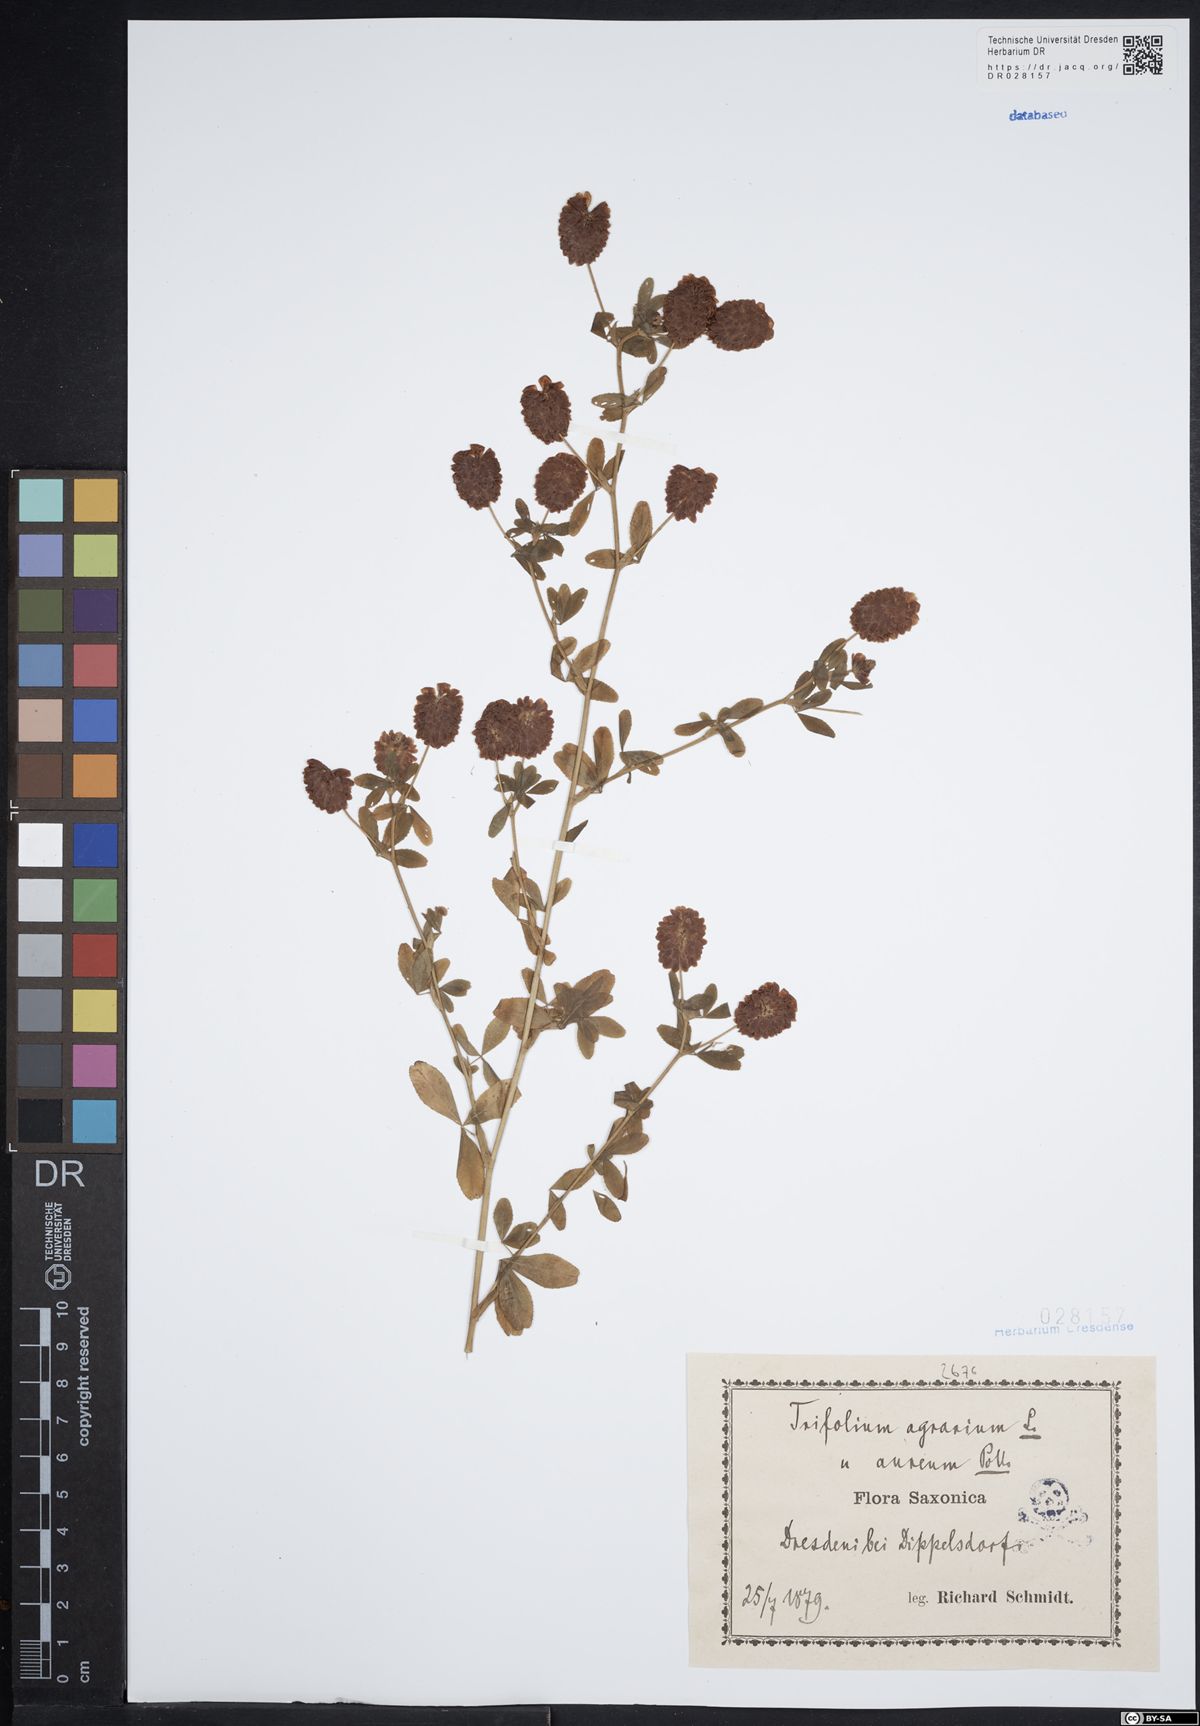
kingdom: Plantae
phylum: Tracheophyta
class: Magnoliopsida
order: Fabales
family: Fabaceae
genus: Trifolium
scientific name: Trifolium aureum
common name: Golden clover
